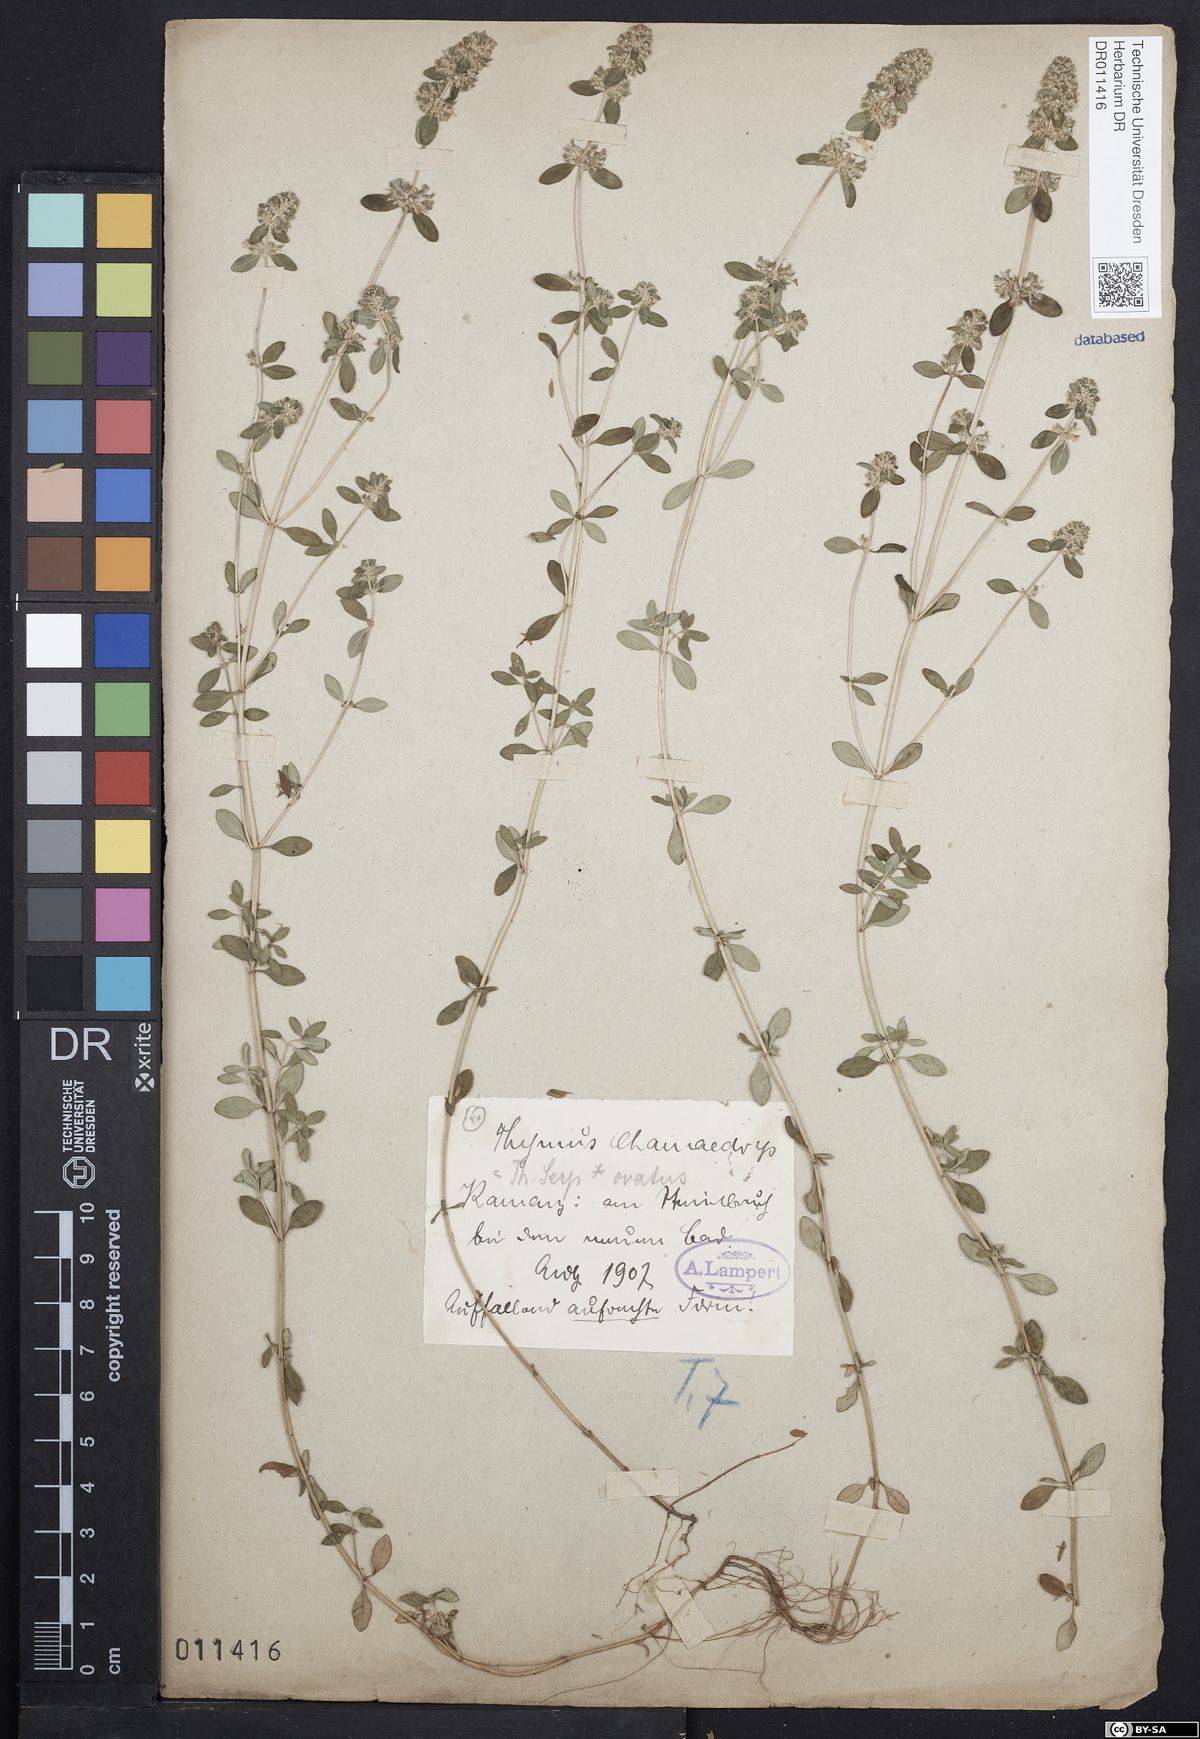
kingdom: Plantae
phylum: Tracheophyta
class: Magnoliopsida
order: Lamiales
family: Lamiaceae
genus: Thymus
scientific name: Thymus pulegioides
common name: Large thyme
